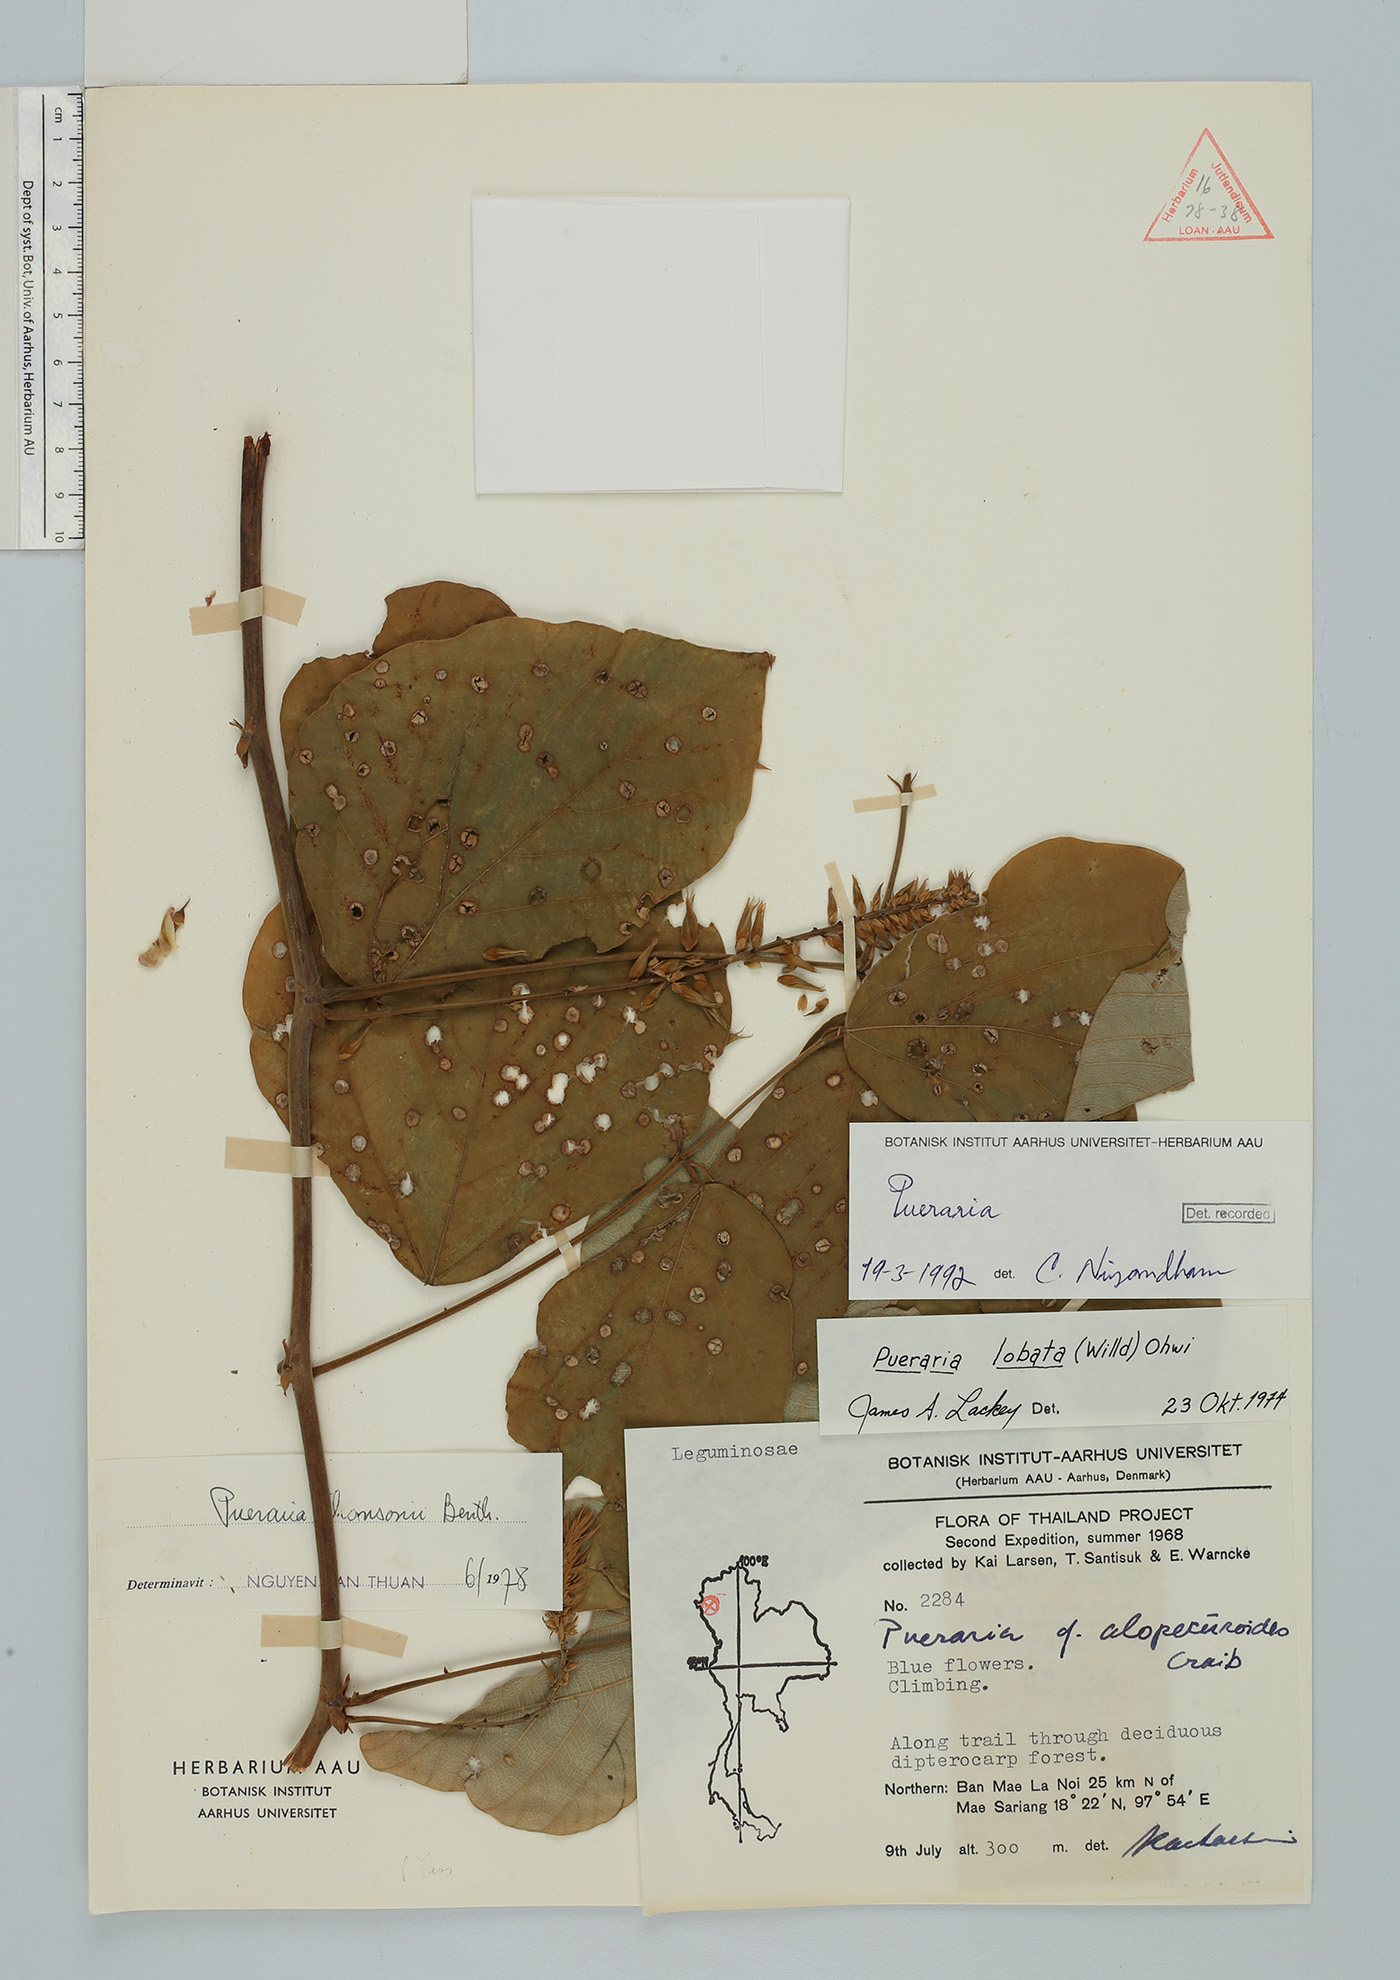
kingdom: Plantae
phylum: Tracheophyta
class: Magnoliopsida
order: Fabales
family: Fabaceae
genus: Pueraria
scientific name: Pueraria
